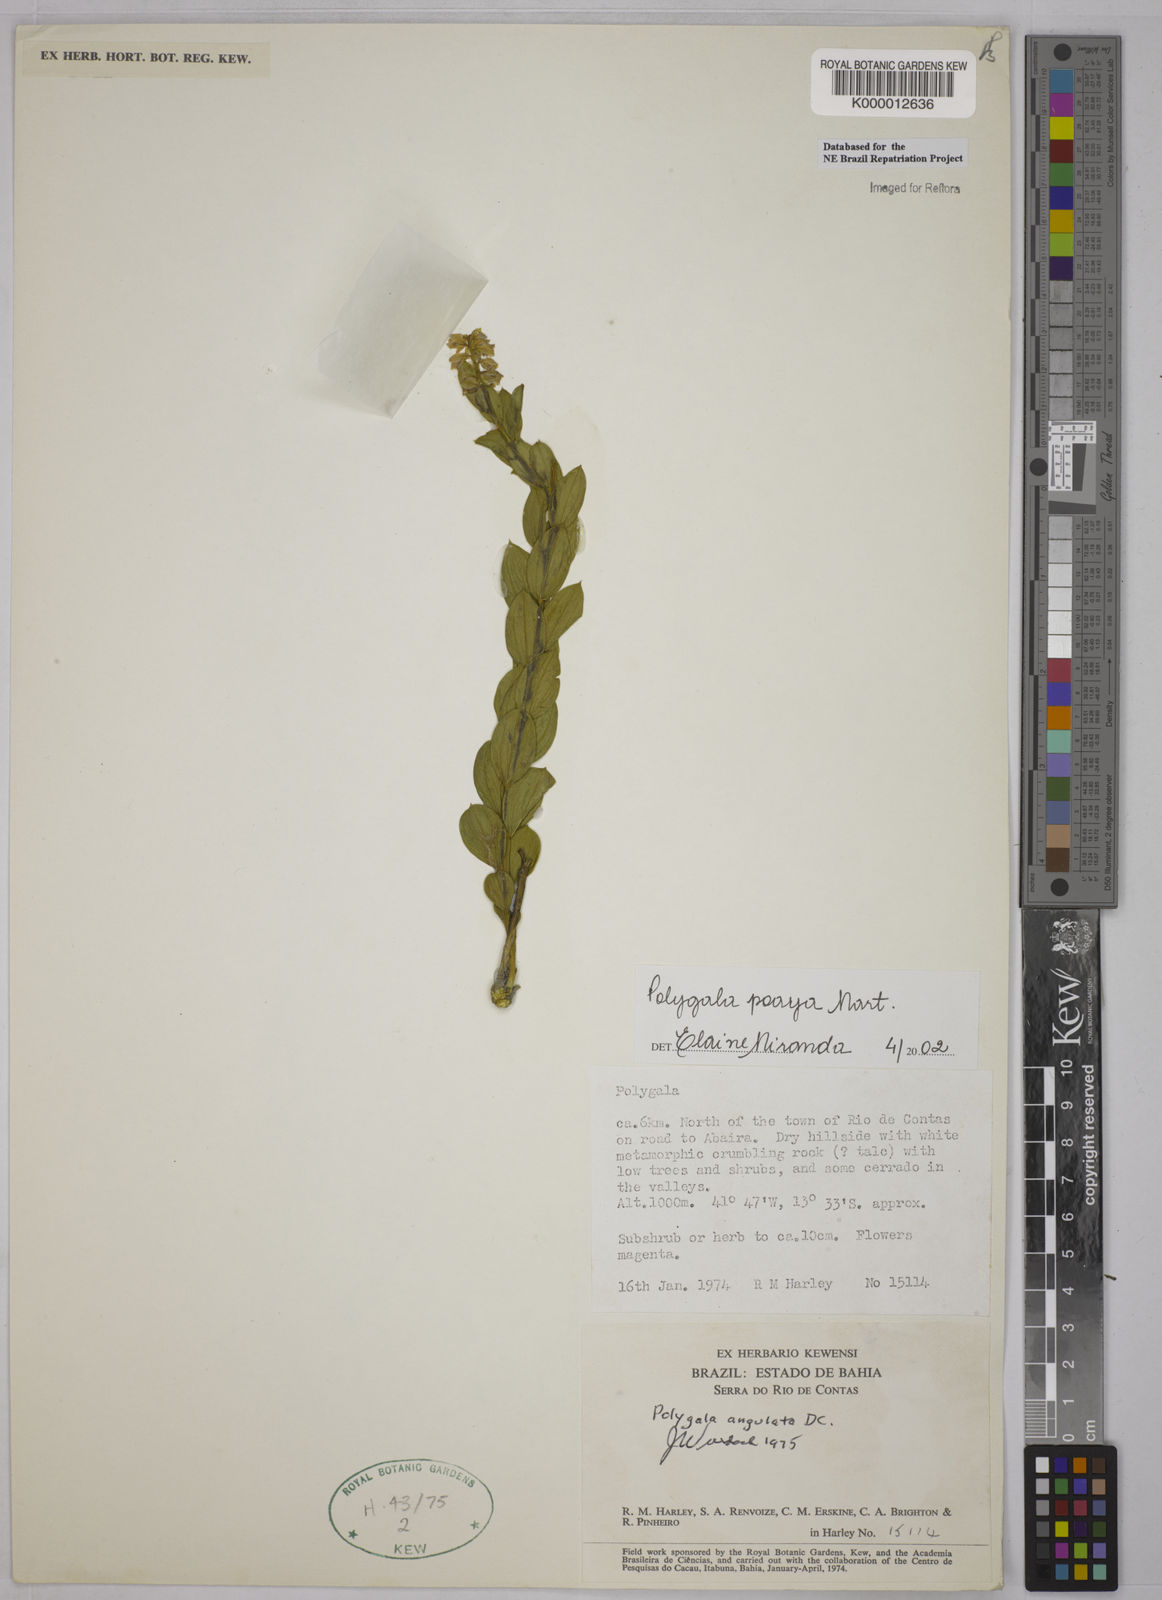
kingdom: Plantae
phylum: Tracheophyta
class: Magnoliopsida
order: Fabales
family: Polygalaceae
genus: Polygala
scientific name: Polygala poaya
